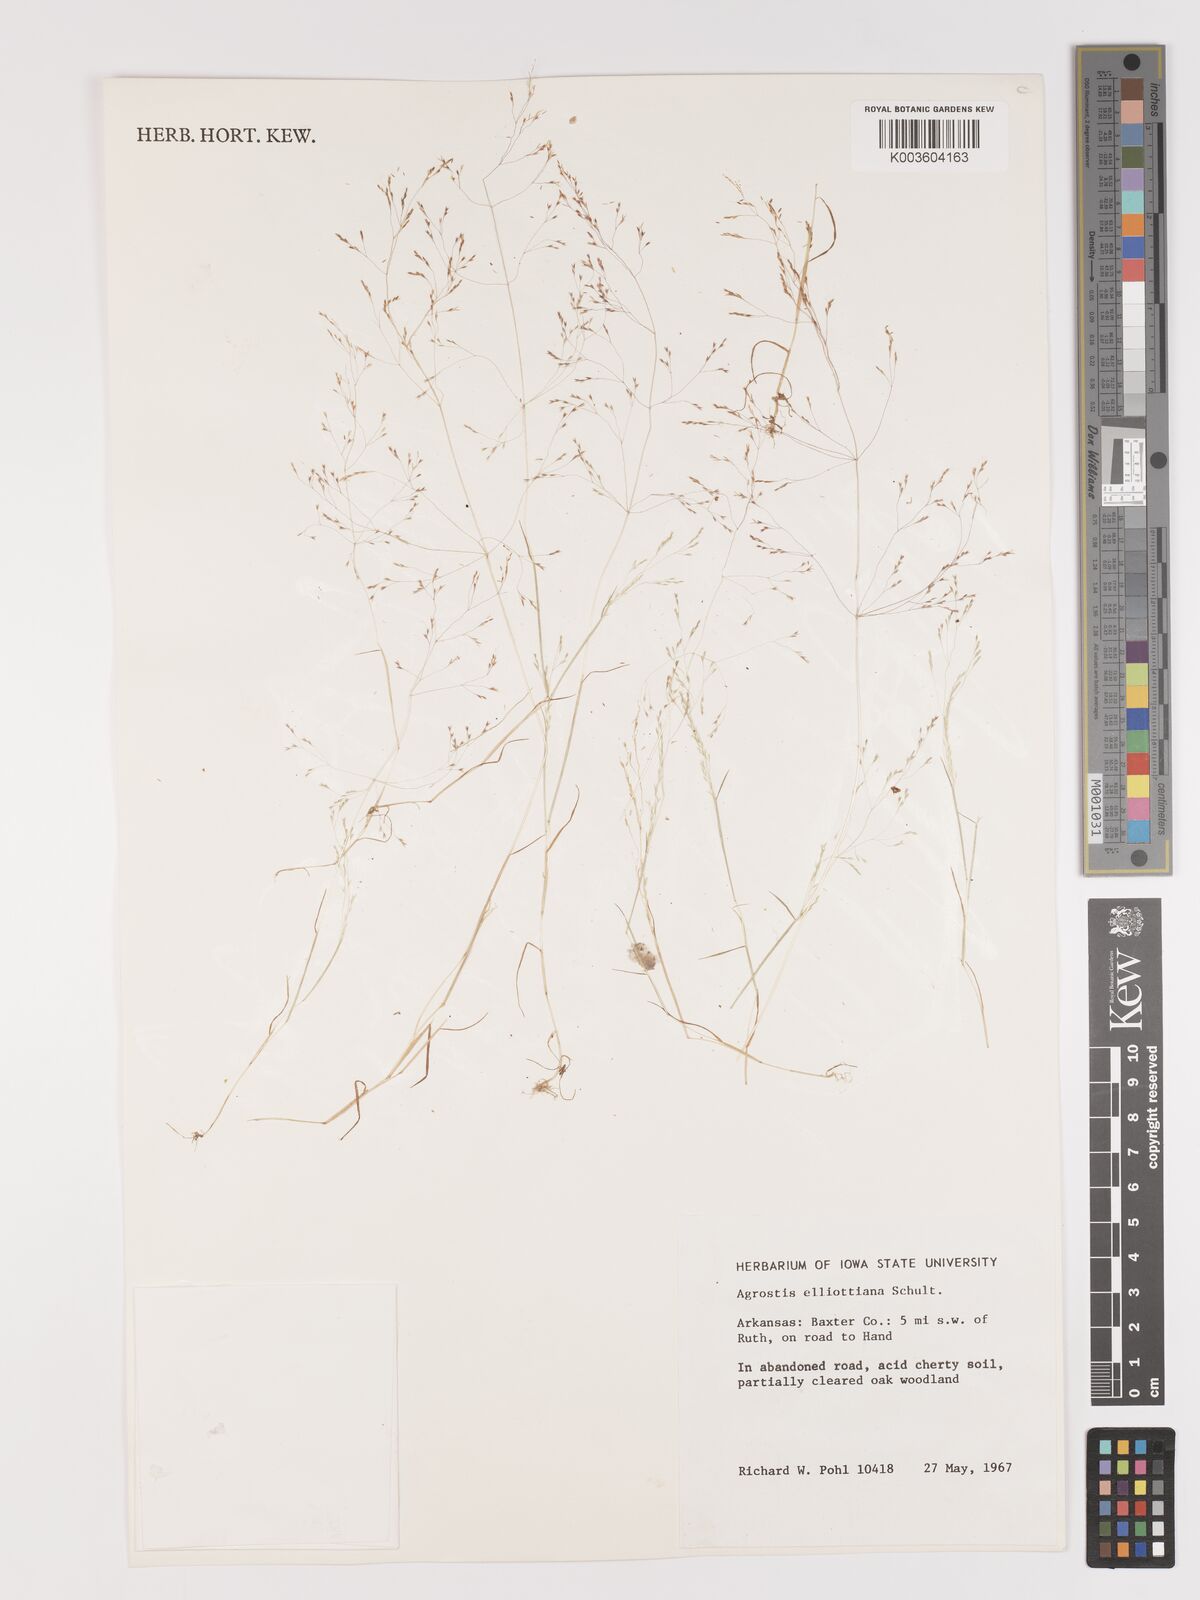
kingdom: Plantae
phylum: Tracheophyta
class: Liliopsida
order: Poales
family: Poaceae
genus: Agrostis
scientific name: Agrostis elliottiana
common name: Elliott's bent
